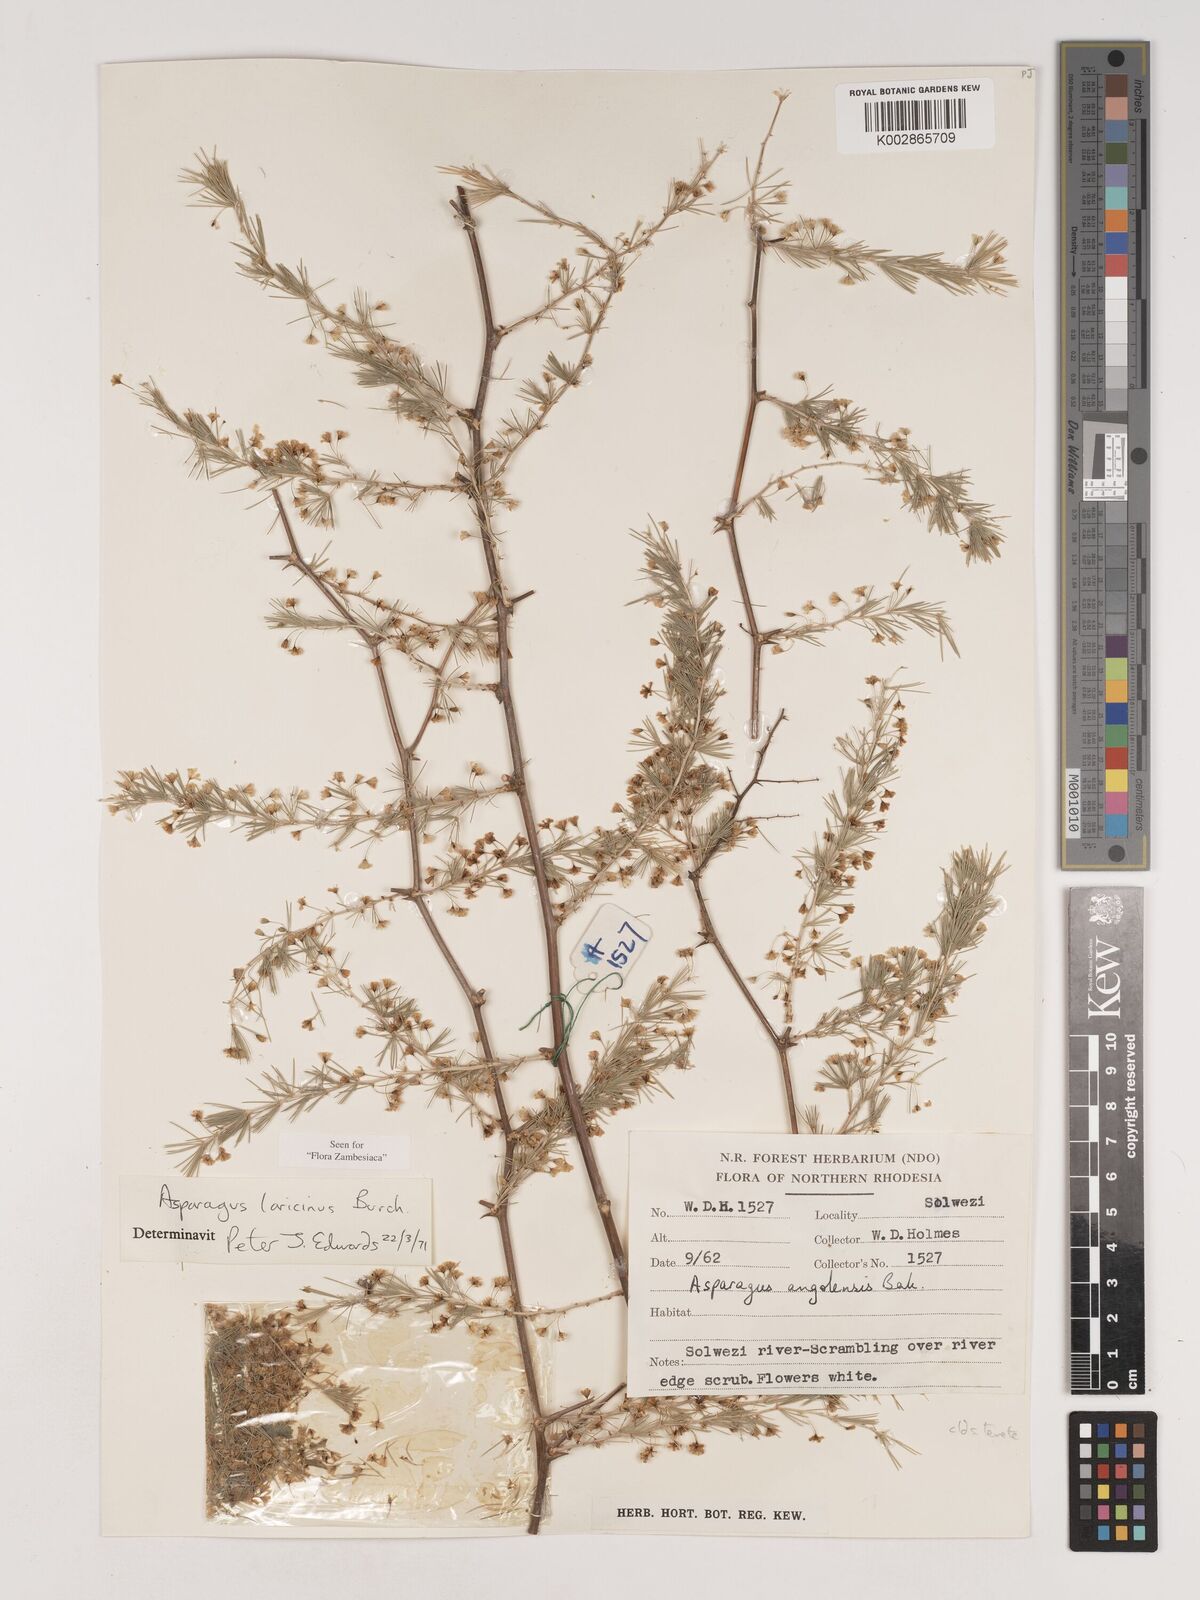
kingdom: Plantae
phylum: Tracheophyta
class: Liliopsida
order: Asparagales
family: Asparagaceae
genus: Asparagus
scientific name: Asparagus laricinus
